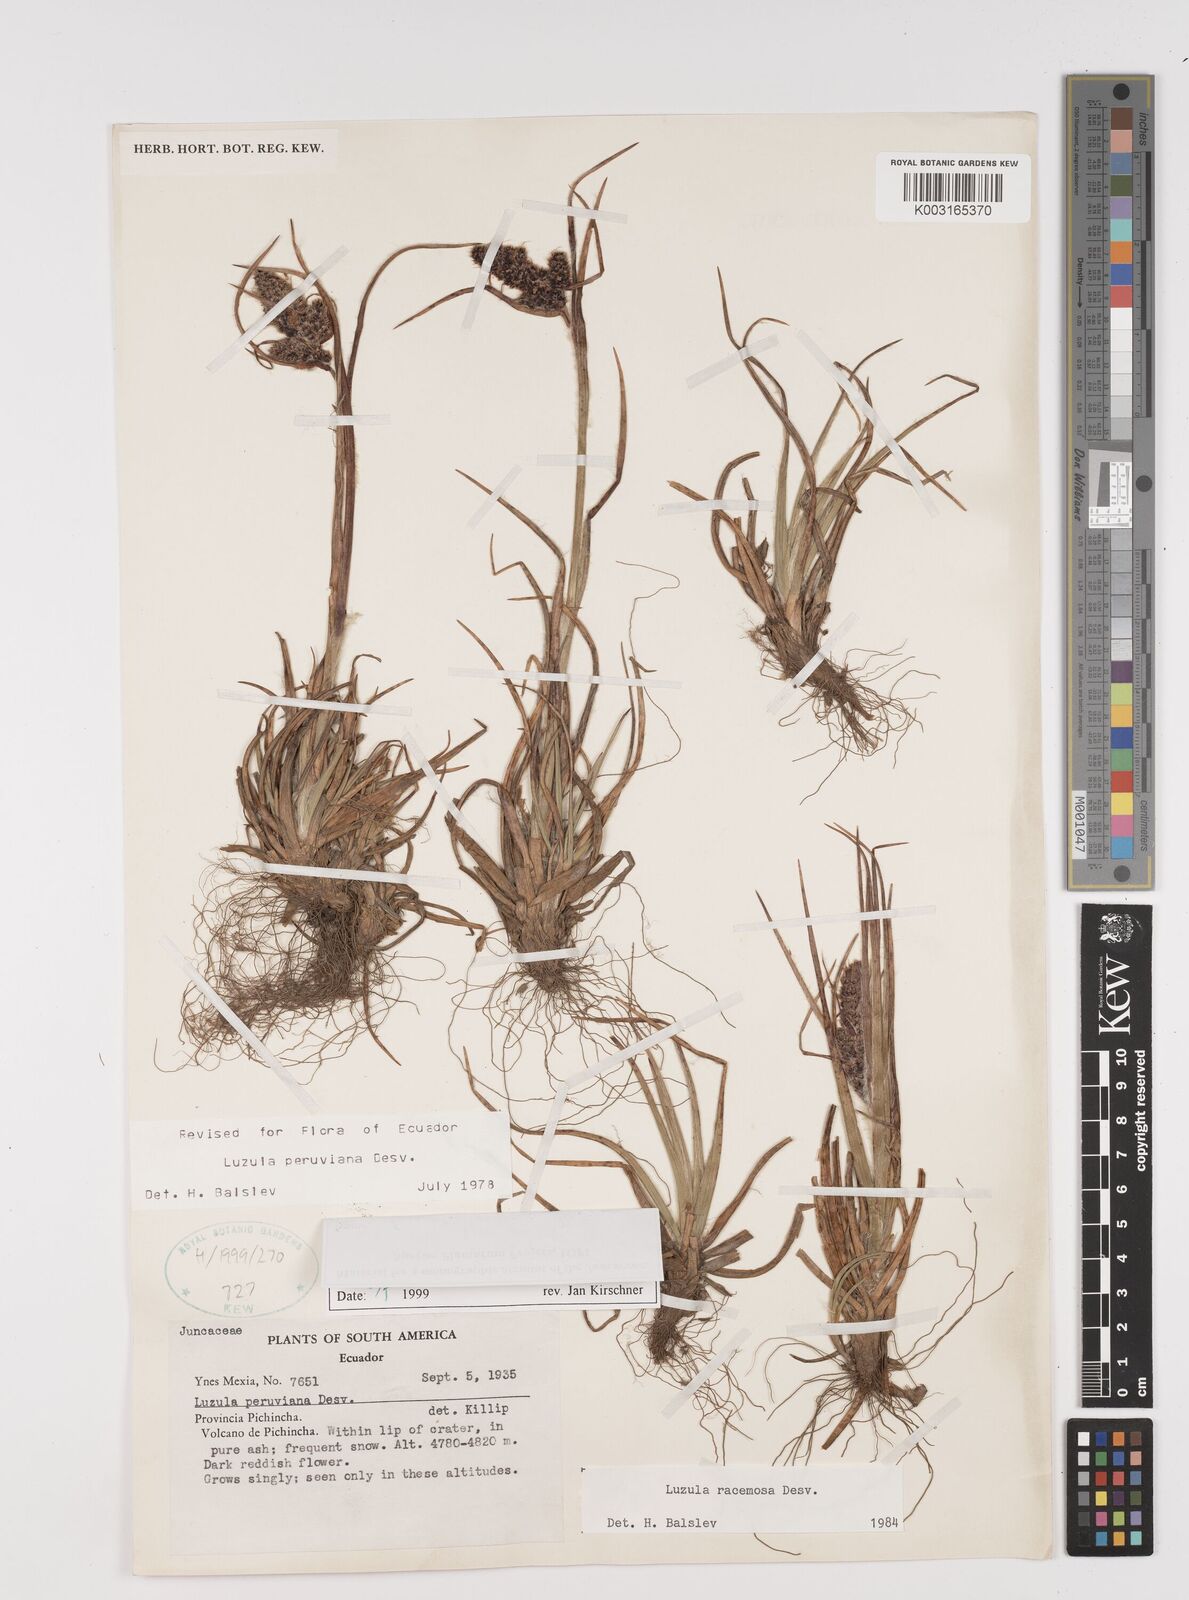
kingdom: Plantae
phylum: Tracheophyta
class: Liliopsida
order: Poales
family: Juncaceae
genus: Luzula
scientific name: Luzula peruviana
